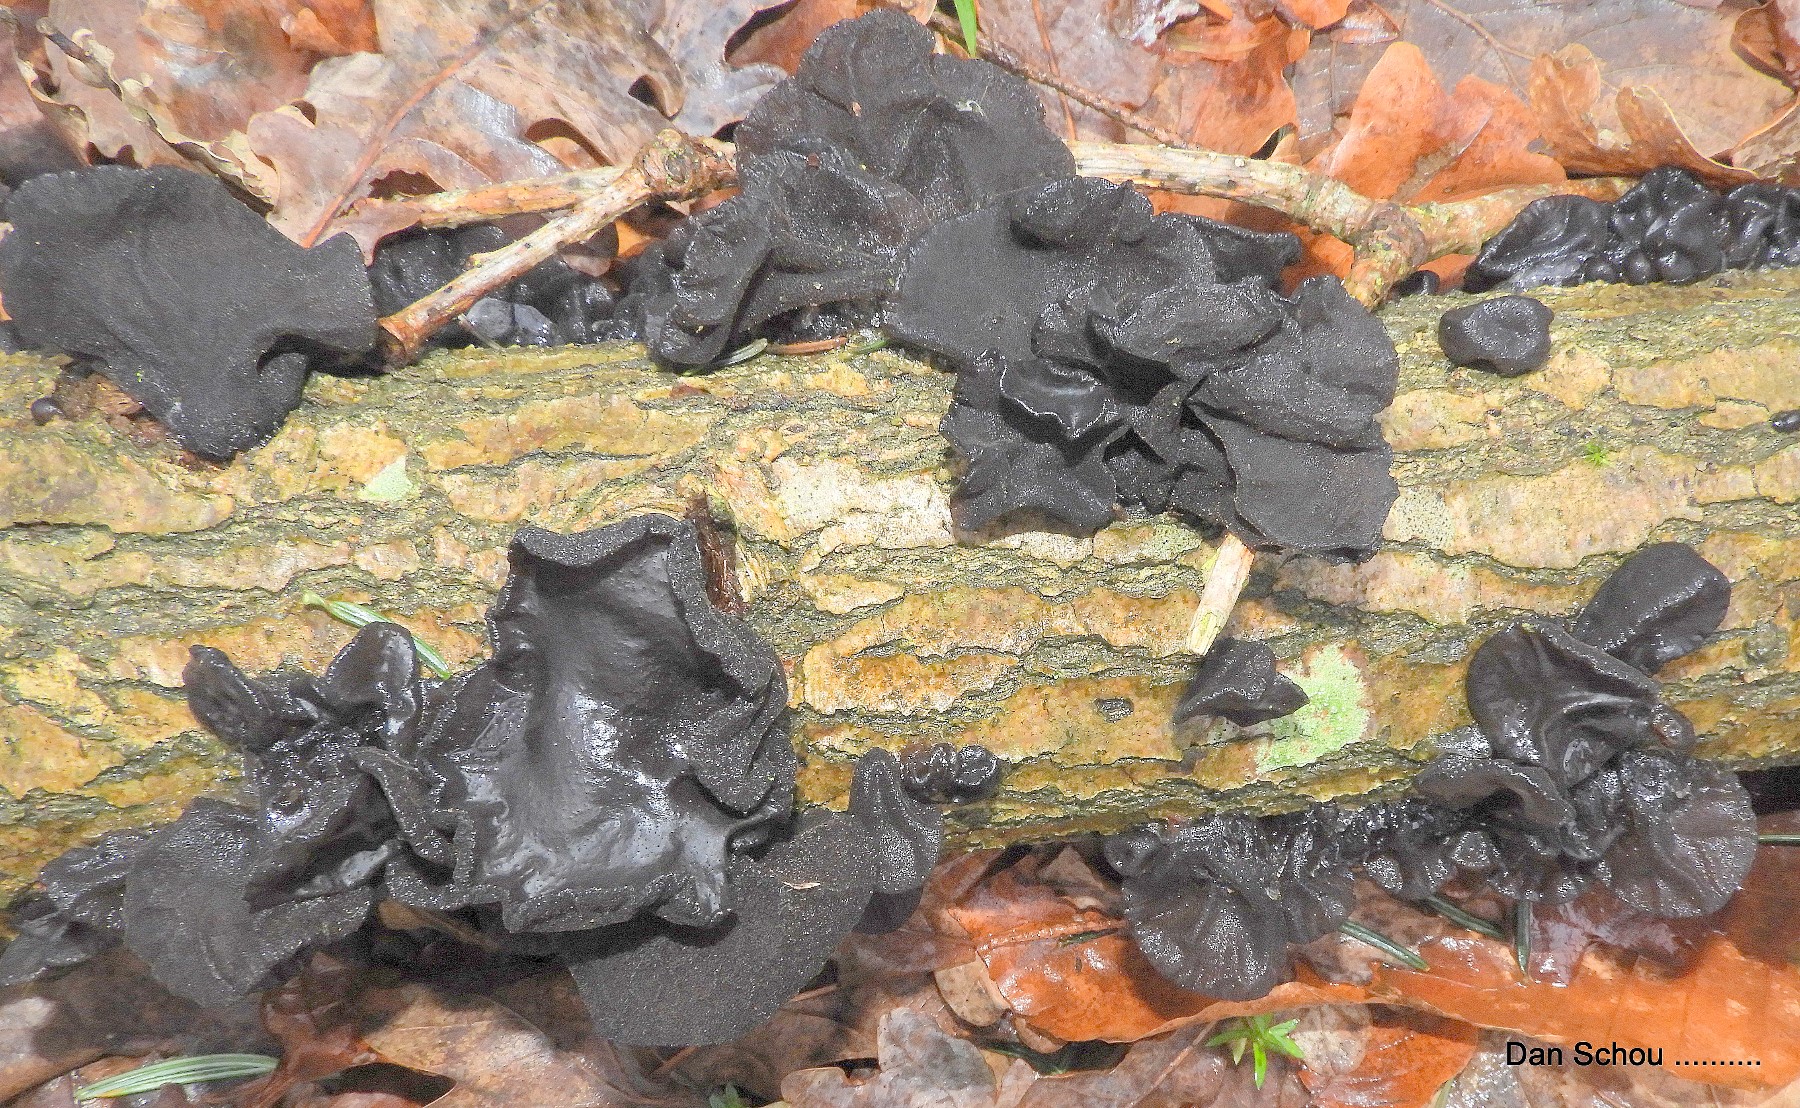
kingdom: Fungi
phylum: Basidiomycota
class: Agaricomycetes
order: Auriculariales
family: Auriculariaceae
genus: Exidia
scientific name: Exidia glandulosa
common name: ege-bævretop
